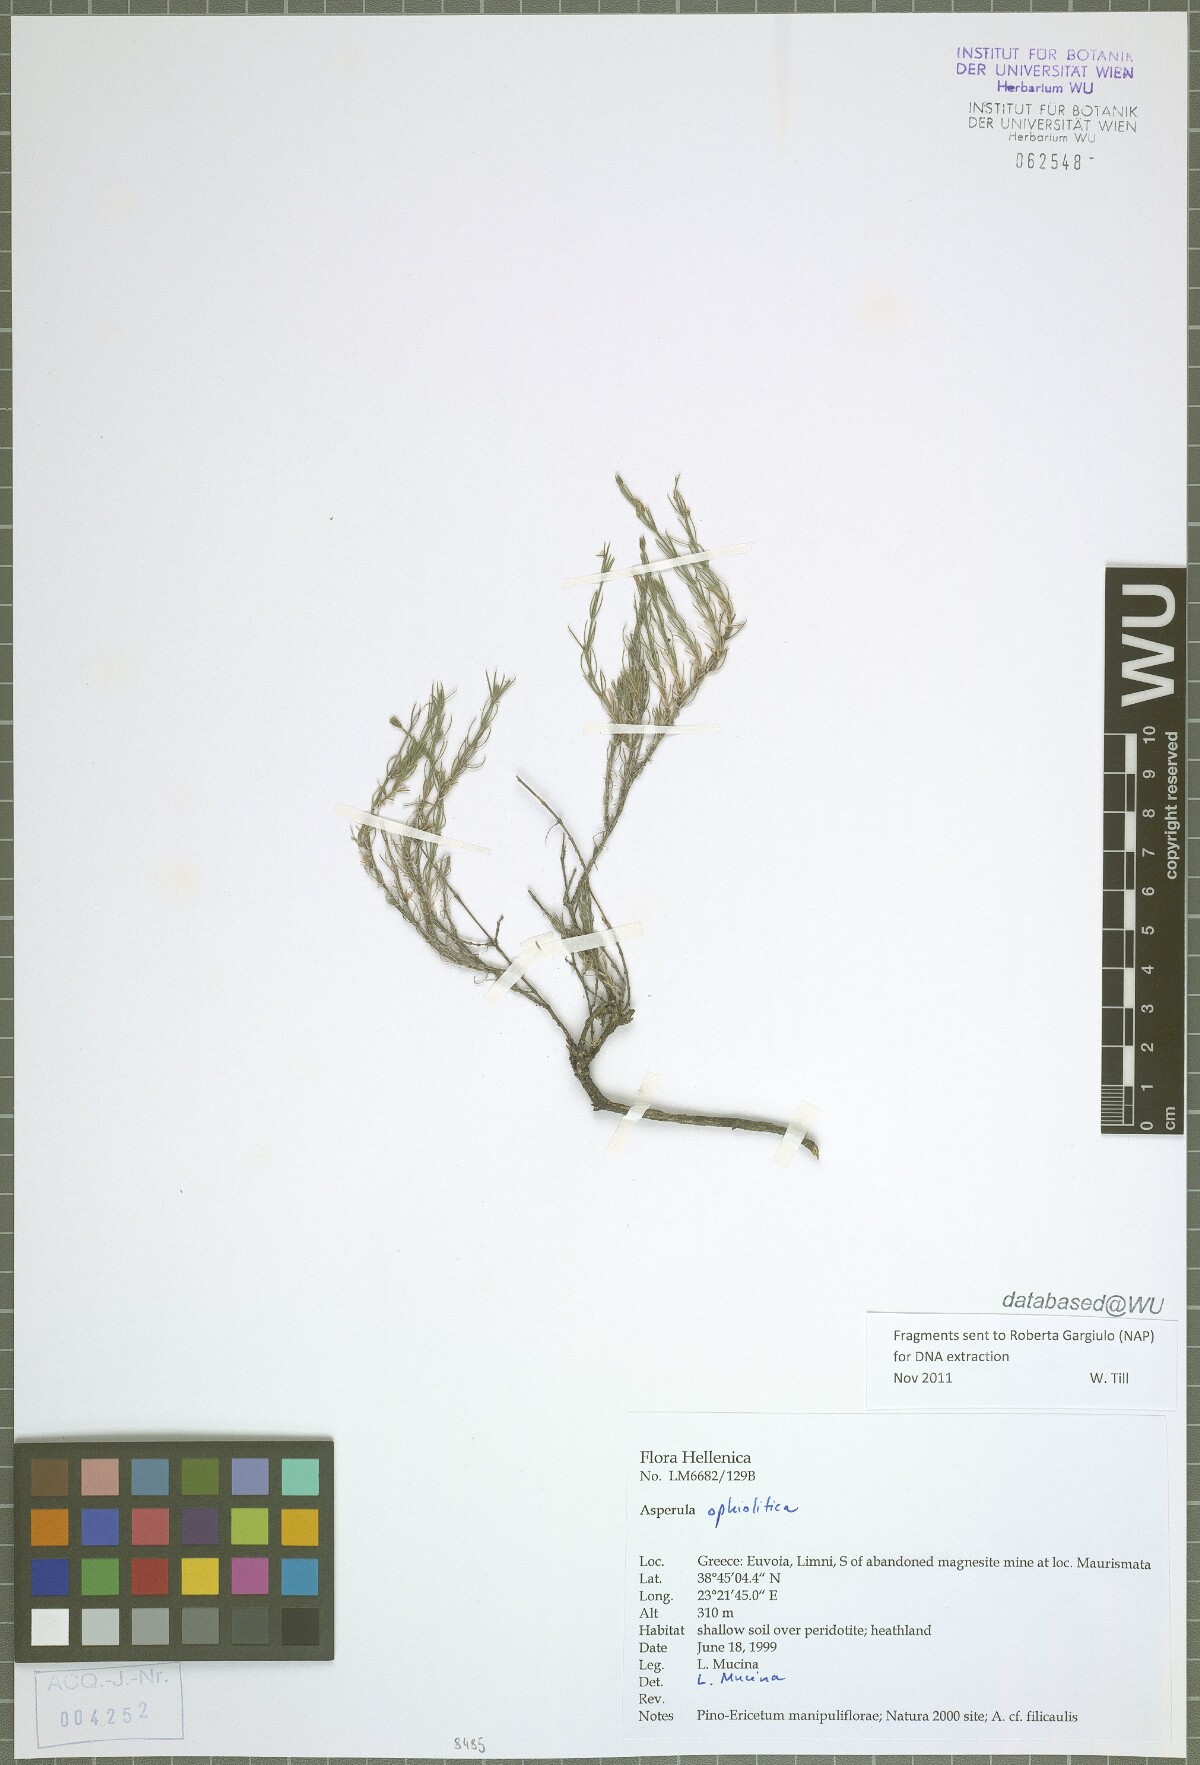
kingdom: Plantae
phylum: Tracheophyta
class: Magnoliopsida
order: Gentianales
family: Rubiaceae
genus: Cynanchica
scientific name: Cynanchica ophiolitica
